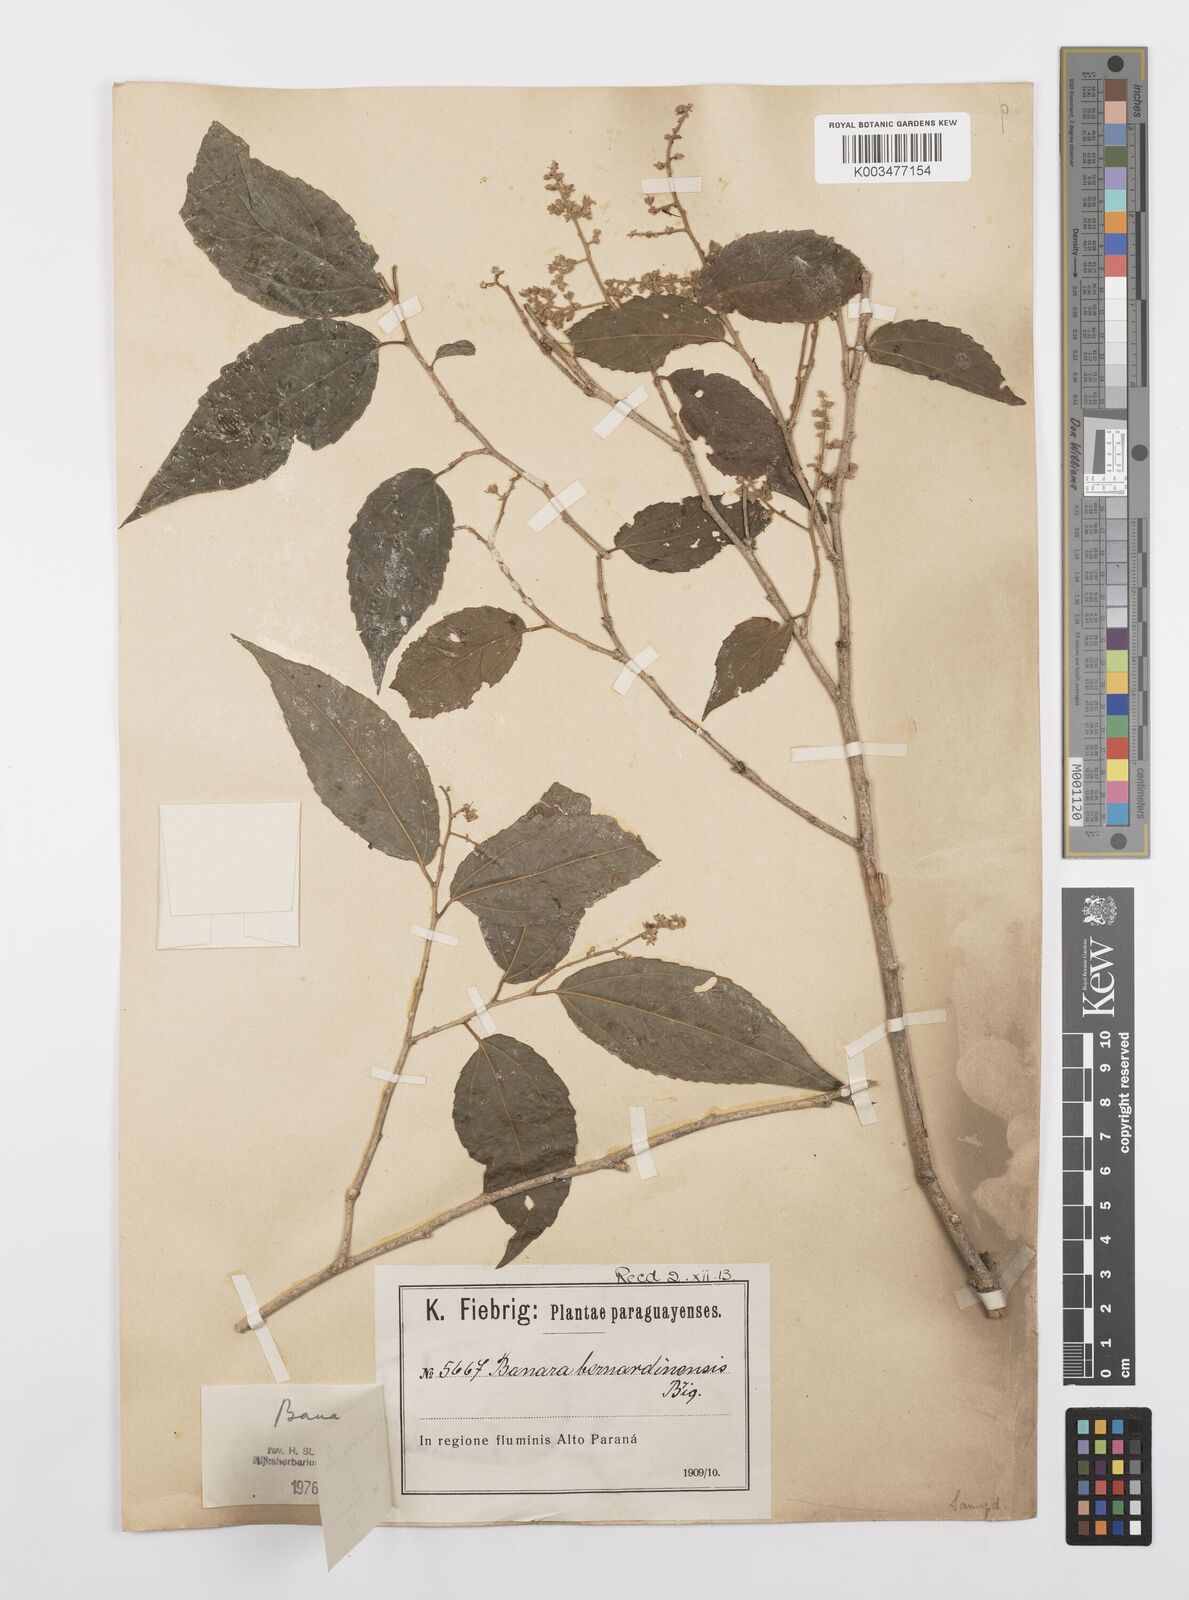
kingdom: Plantae
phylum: Tracheophyta
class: Magnoliopsida
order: Malpighiales
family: Salicaceae
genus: Banara
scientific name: Banara tomentosa
